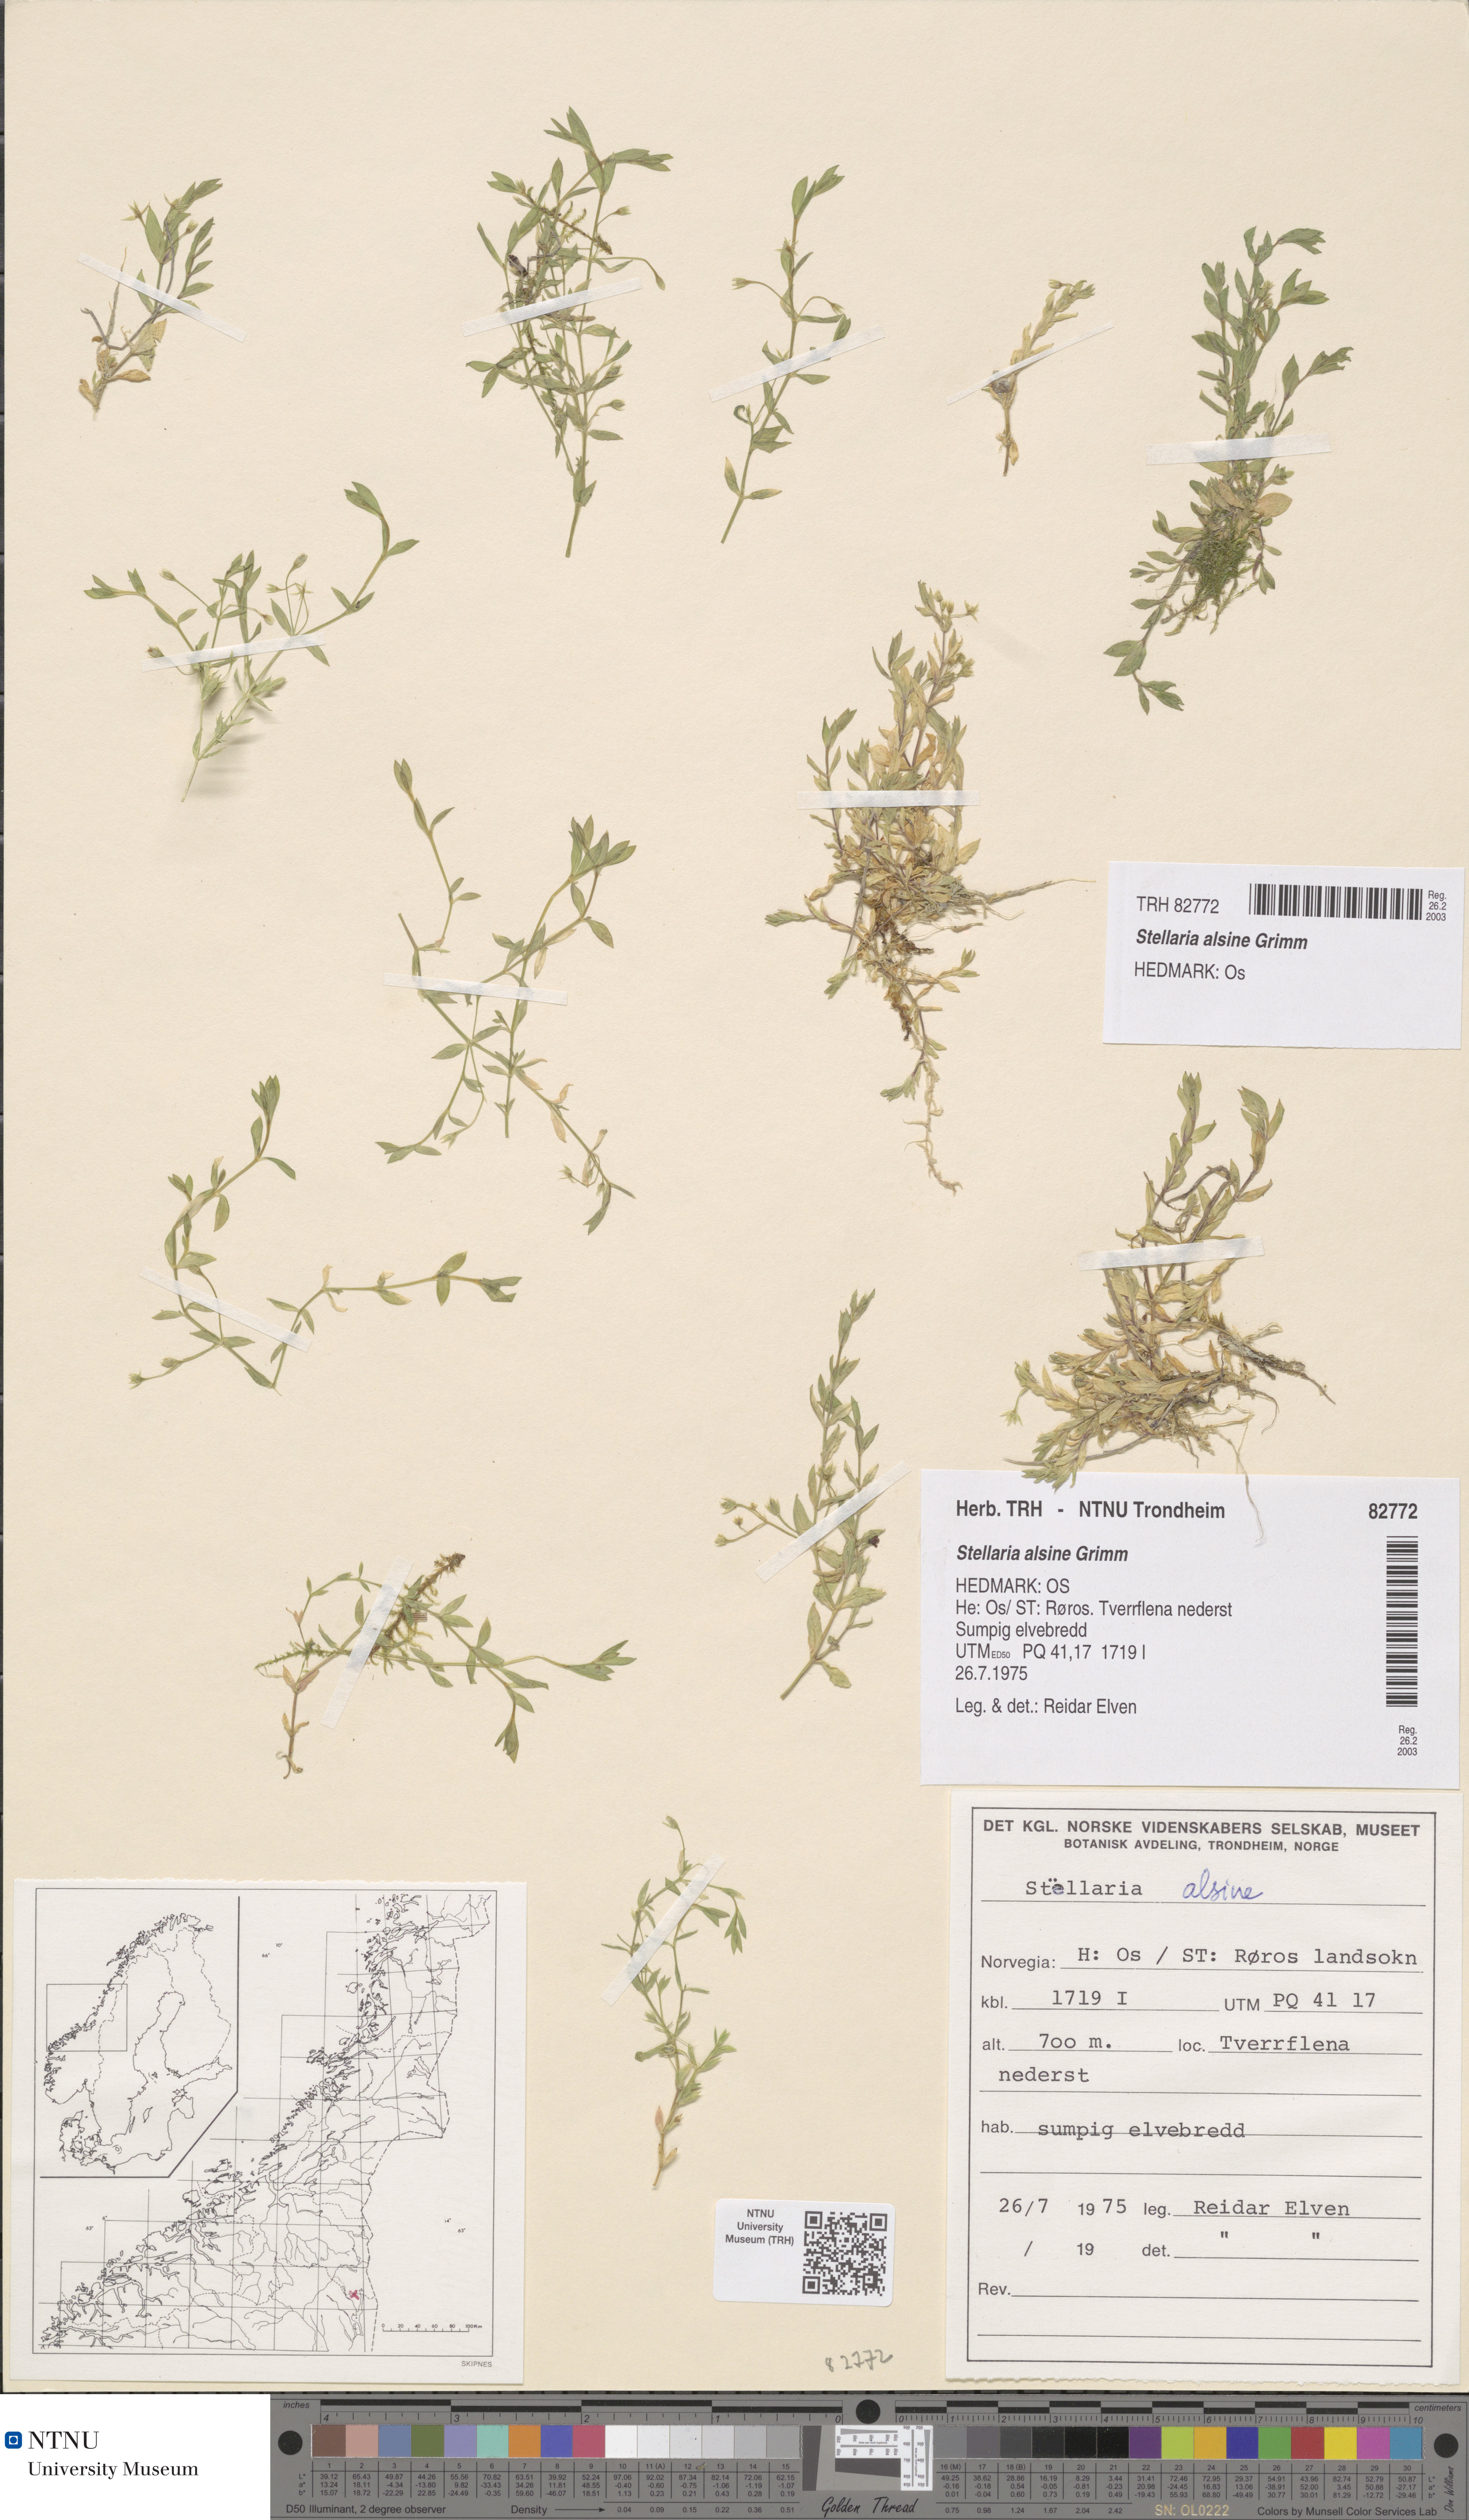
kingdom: Plantae
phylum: Tracheophyta
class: Magnoliopsida
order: Caryophyllales
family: Caryophyllaceae
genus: Stellaria
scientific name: Stellaria alsine
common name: Bog stitchwort
